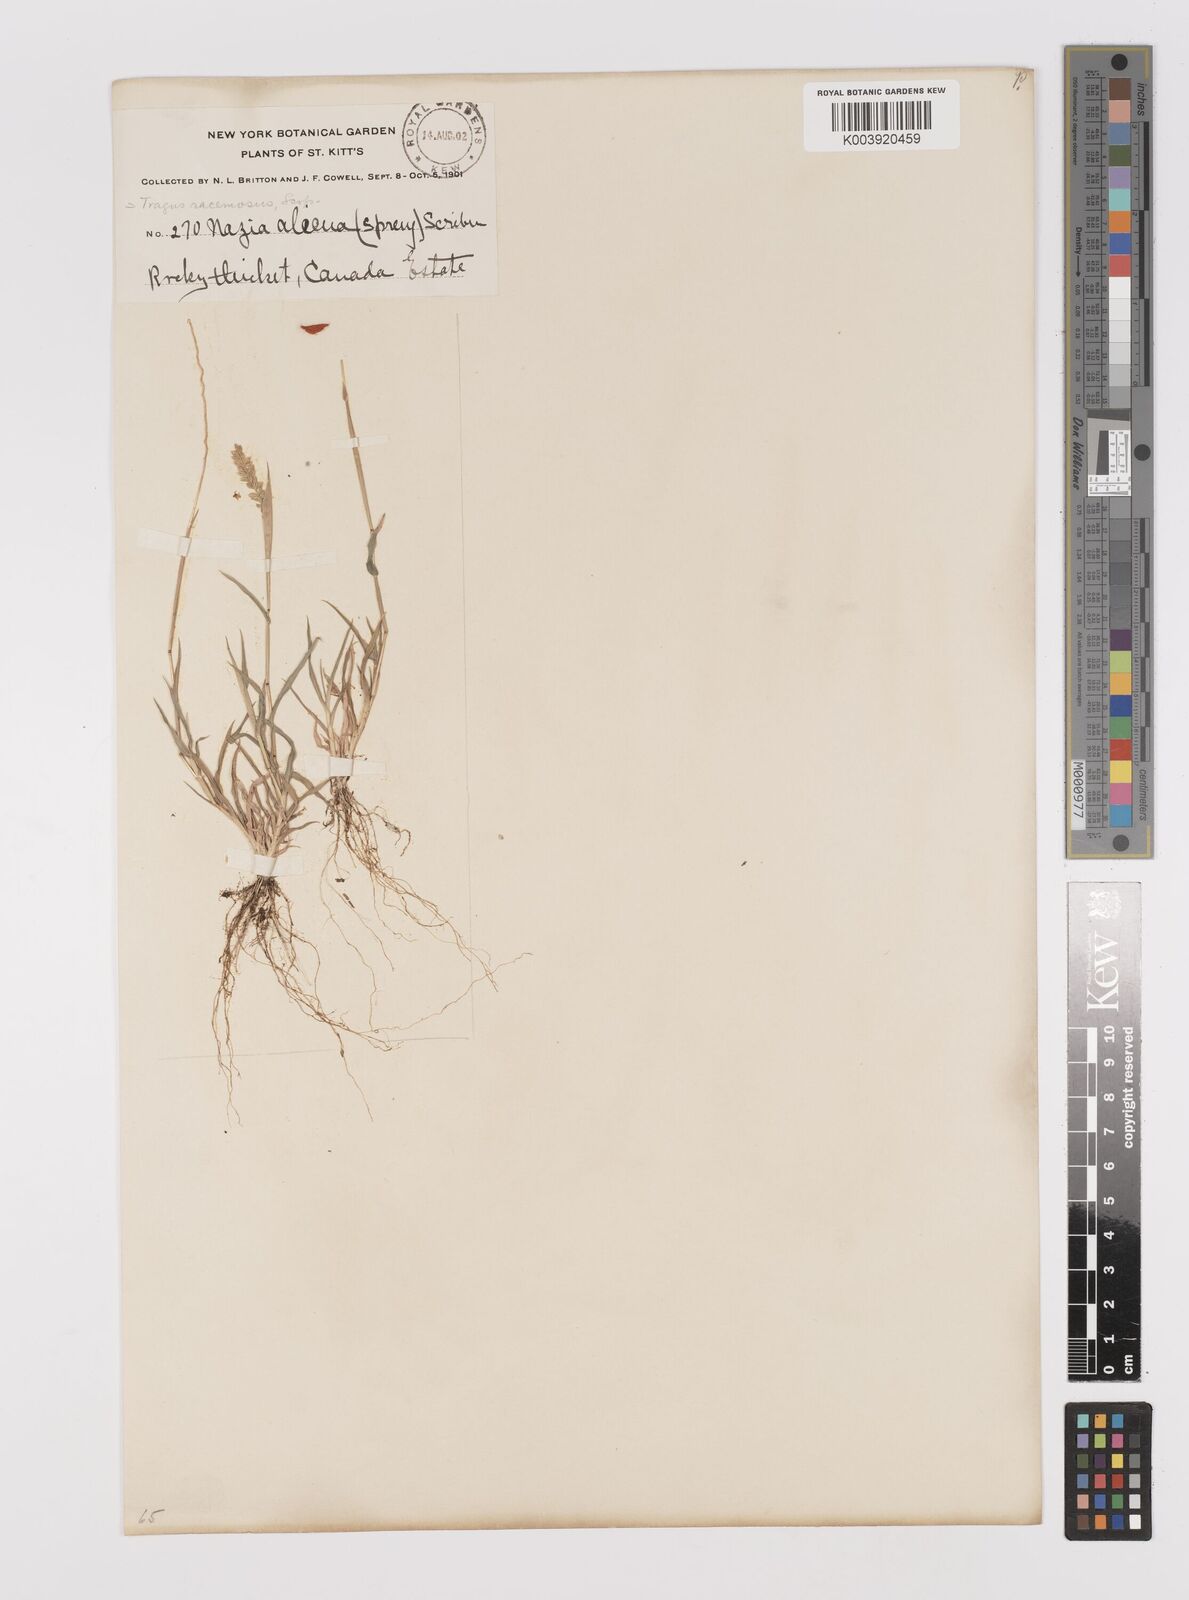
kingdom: Plantae
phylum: Tracheophyta
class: Liliopsida
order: Poales
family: Poaceae
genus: Tragus
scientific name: Tragus berteronianus
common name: African bur-grass
